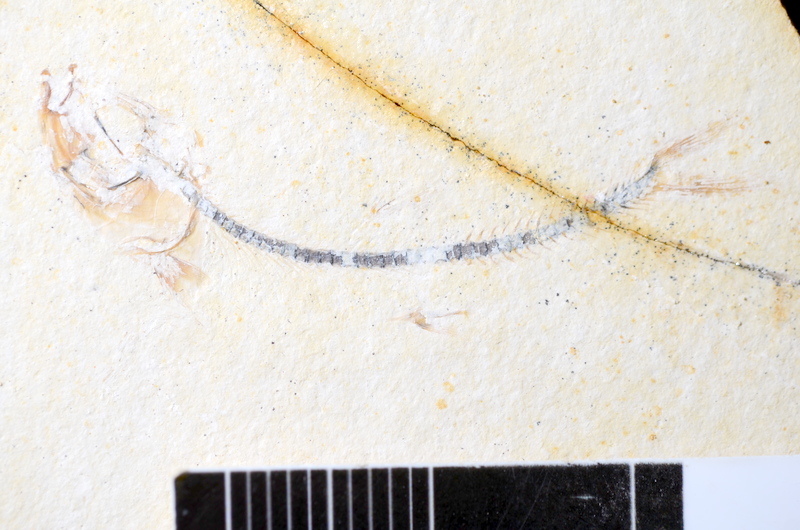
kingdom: Animalia
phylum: Chordata
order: Salmoniformes
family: Orthogonikleithridae
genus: Orthogonikleithrus
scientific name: Orthogonikleithrus hoelli
